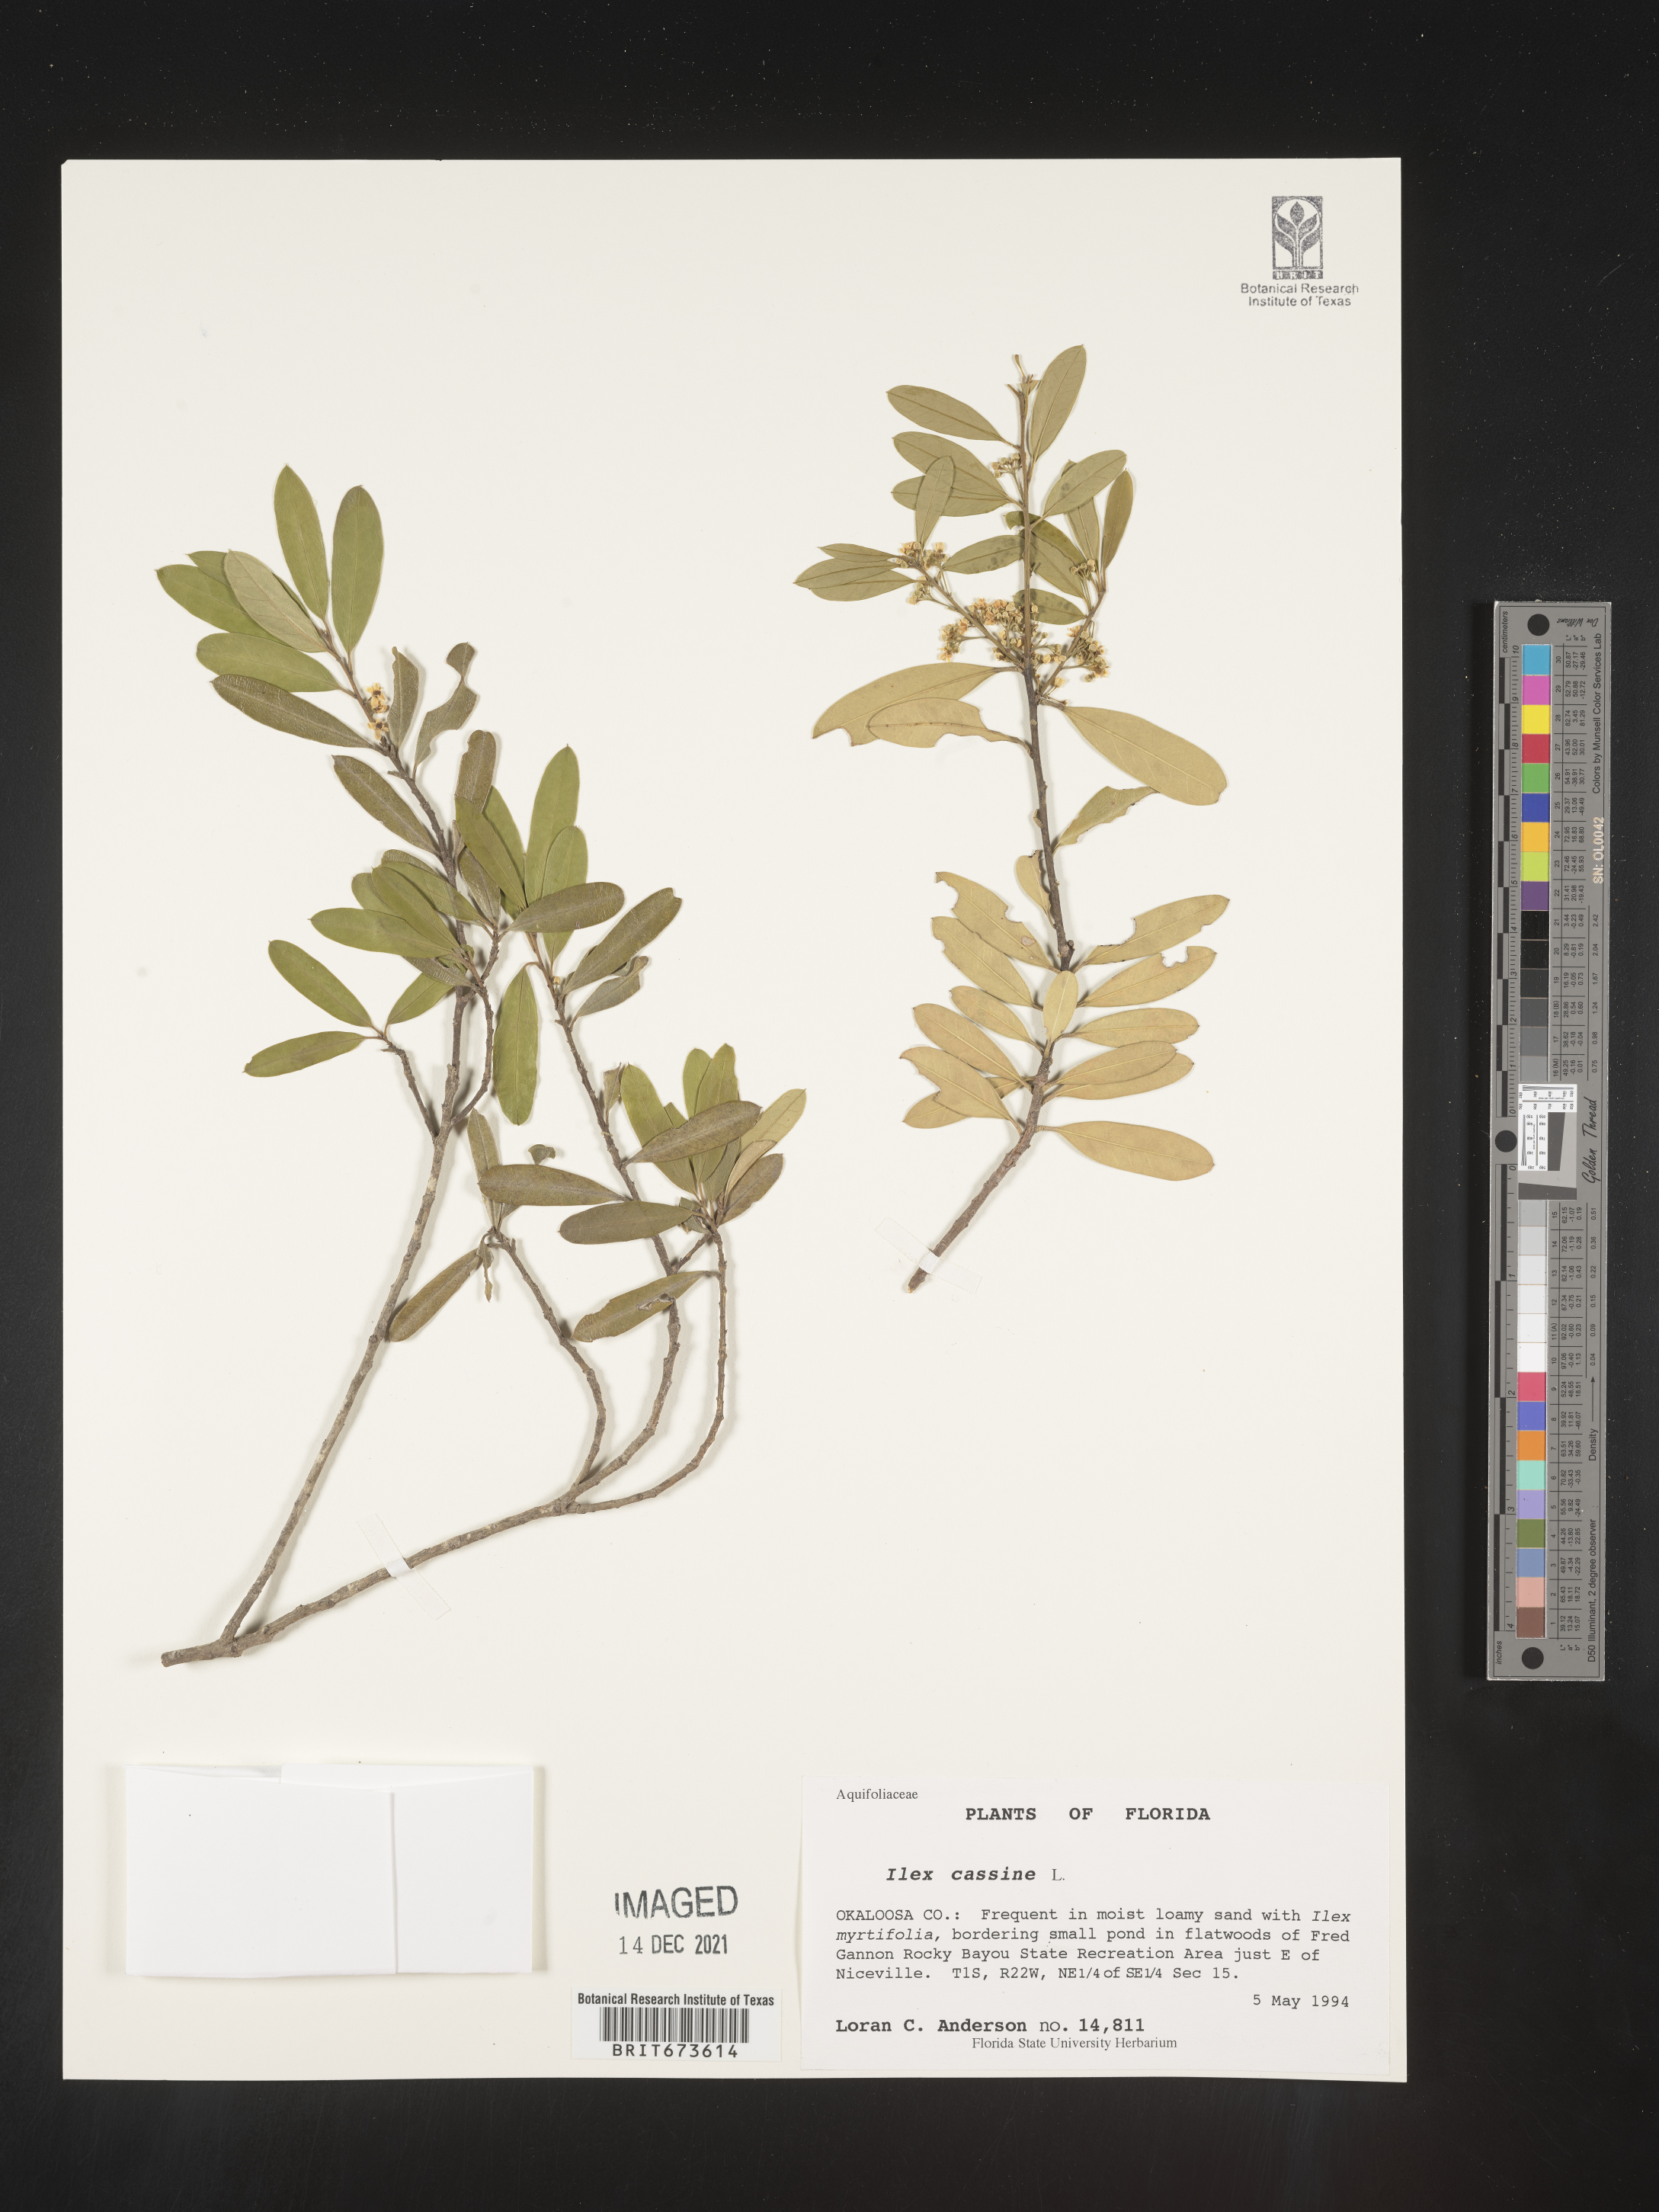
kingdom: Plantae
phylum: Tracheophyta
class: Magnoliopsida
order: Aquifoliales
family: Aquifoliaceae
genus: Ilex
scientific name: Ilex cassine
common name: Dahoon
